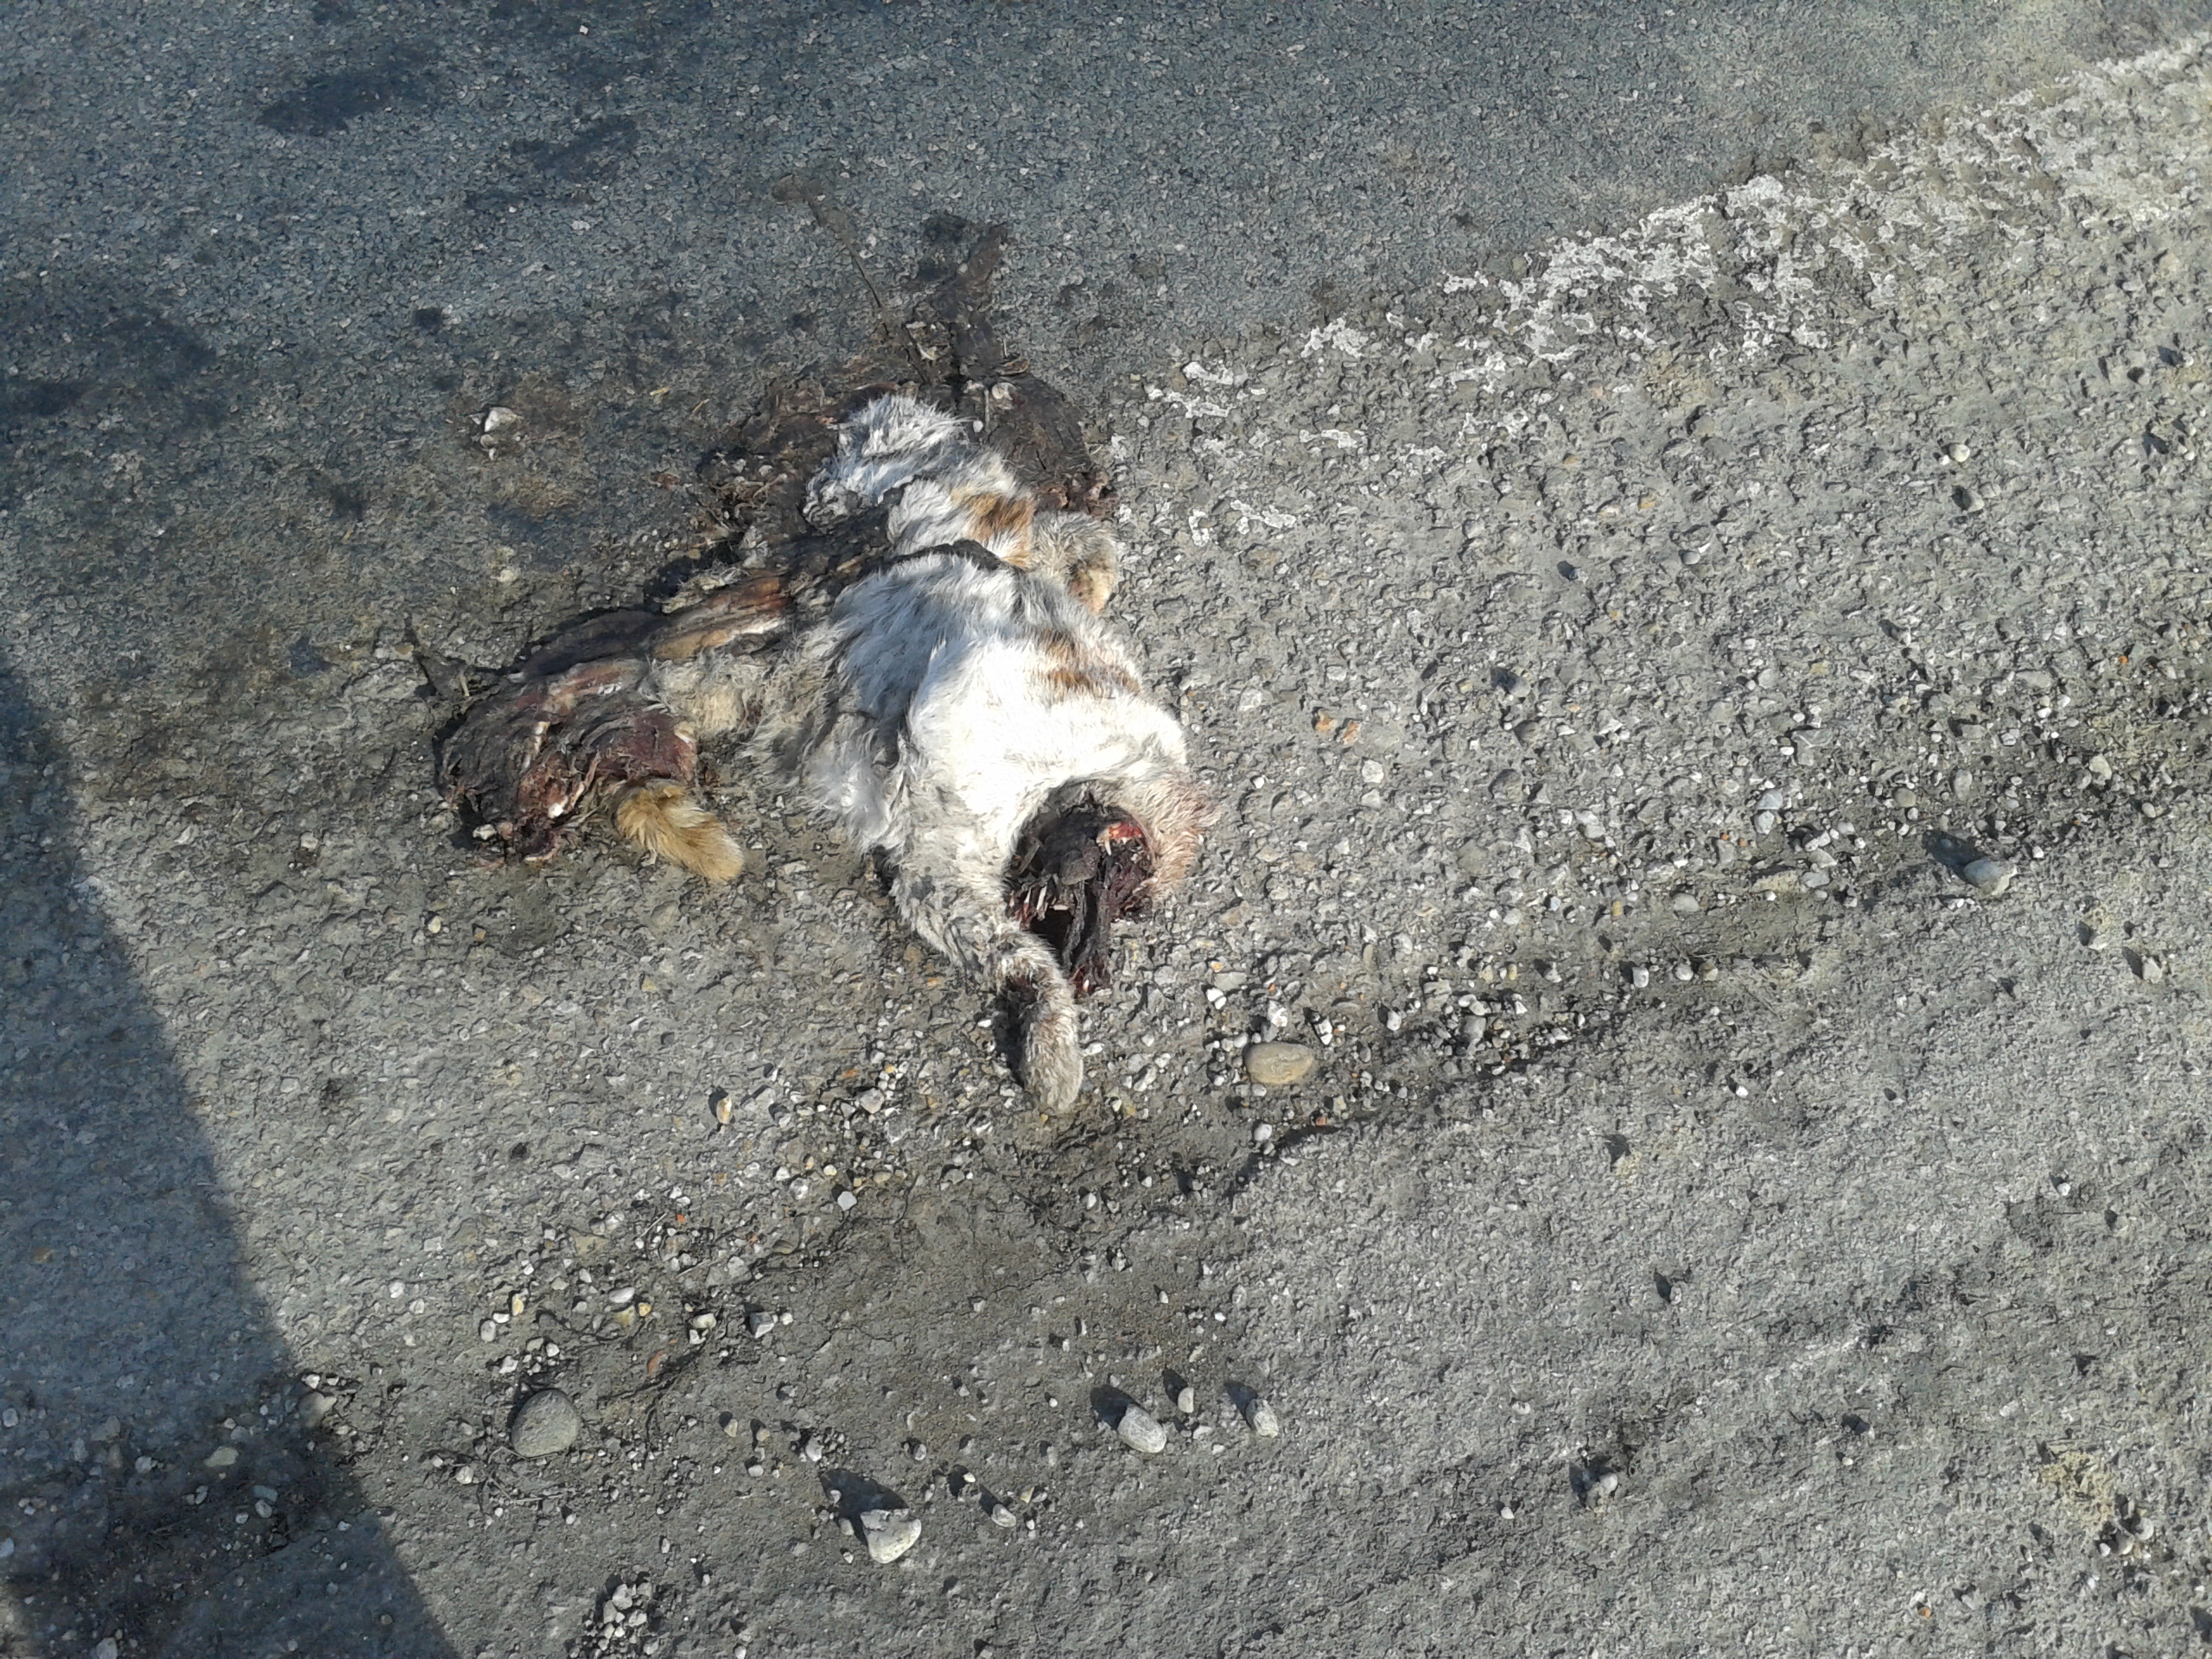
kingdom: Animalia
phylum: Chordata
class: Mammalia
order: Carnivora
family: Felidae
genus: Felis
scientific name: Felis catus
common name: Domestic cat
